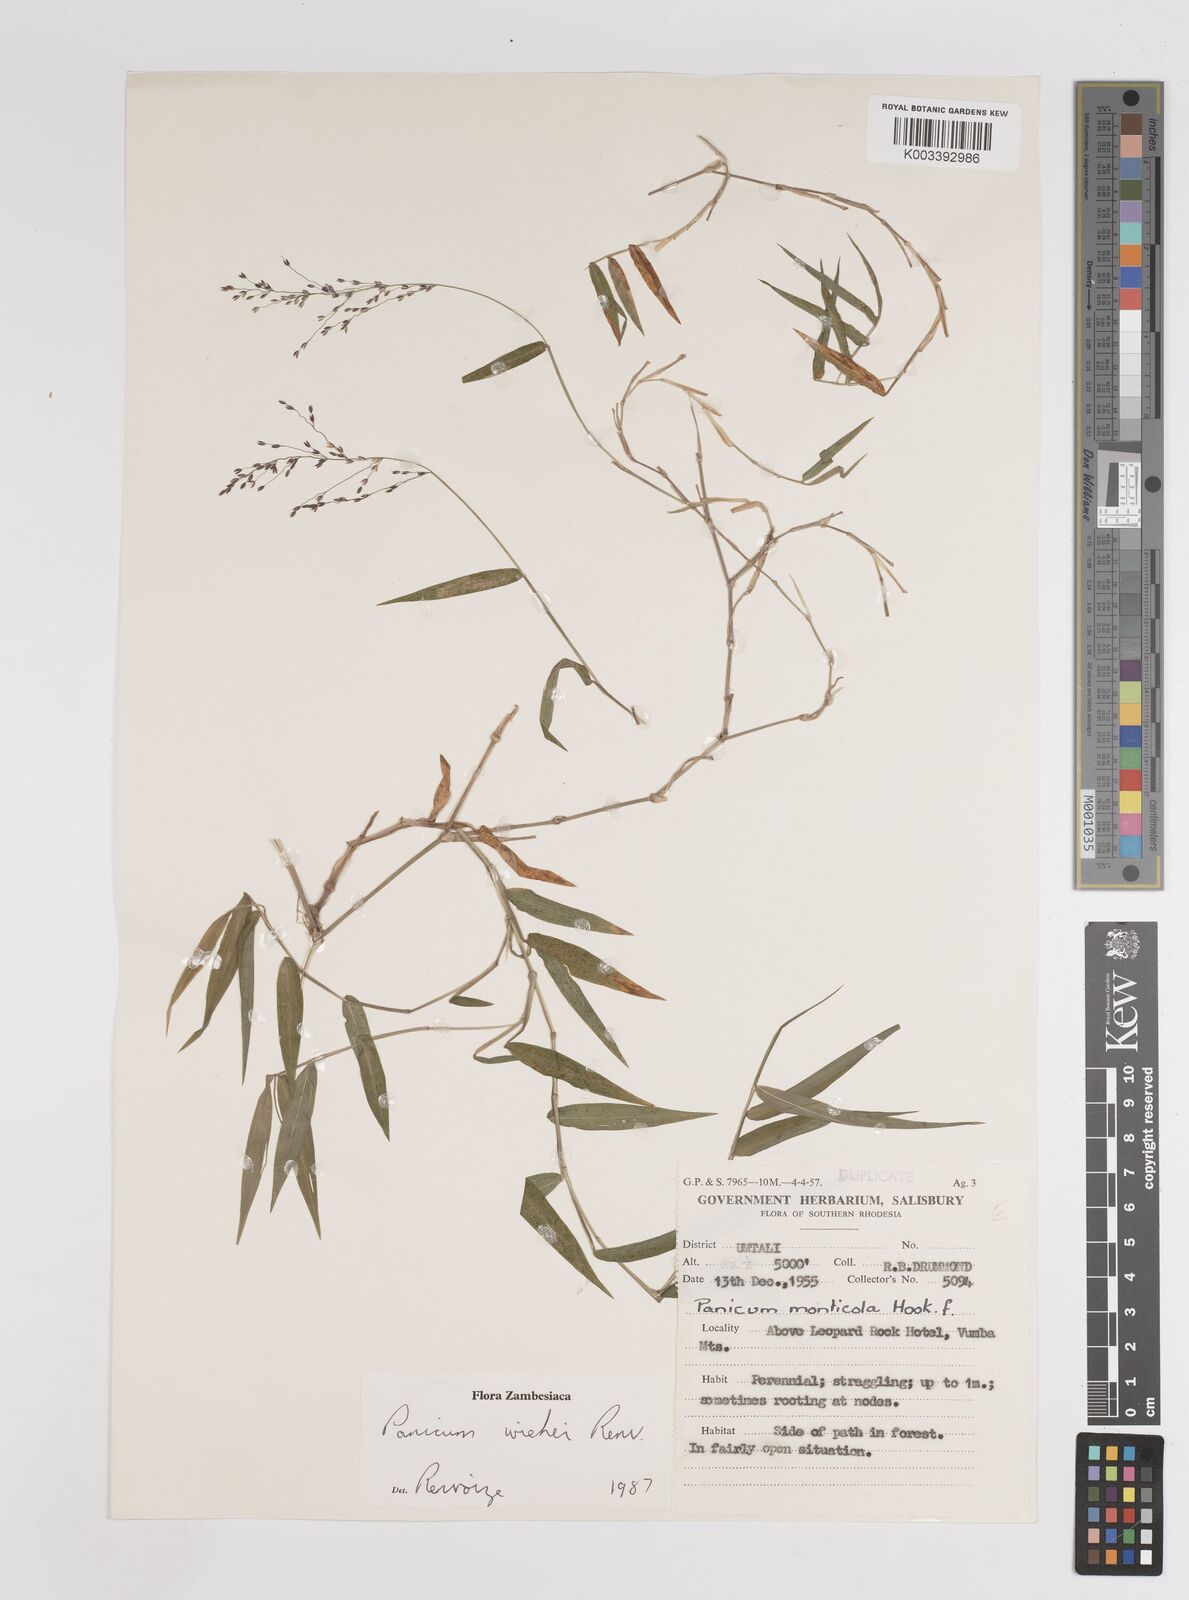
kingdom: Plantae
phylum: Tracheophyta
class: Liliopsida
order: Poales
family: Poaceae
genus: Panicum
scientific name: Panicum wiehei
